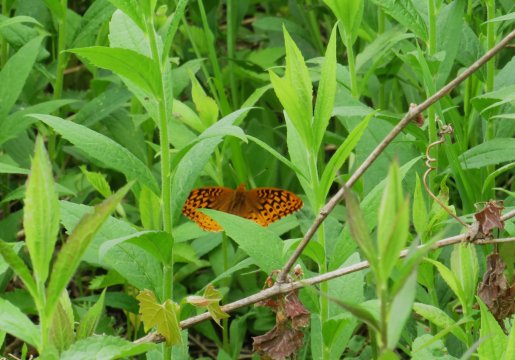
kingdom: Animalia
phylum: Arthropoda
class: Insecta
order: Lepidoptera
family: Nymphalidae
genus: Speyeria
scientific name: Speyeria cybele
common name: Great Spangled Fritillary
